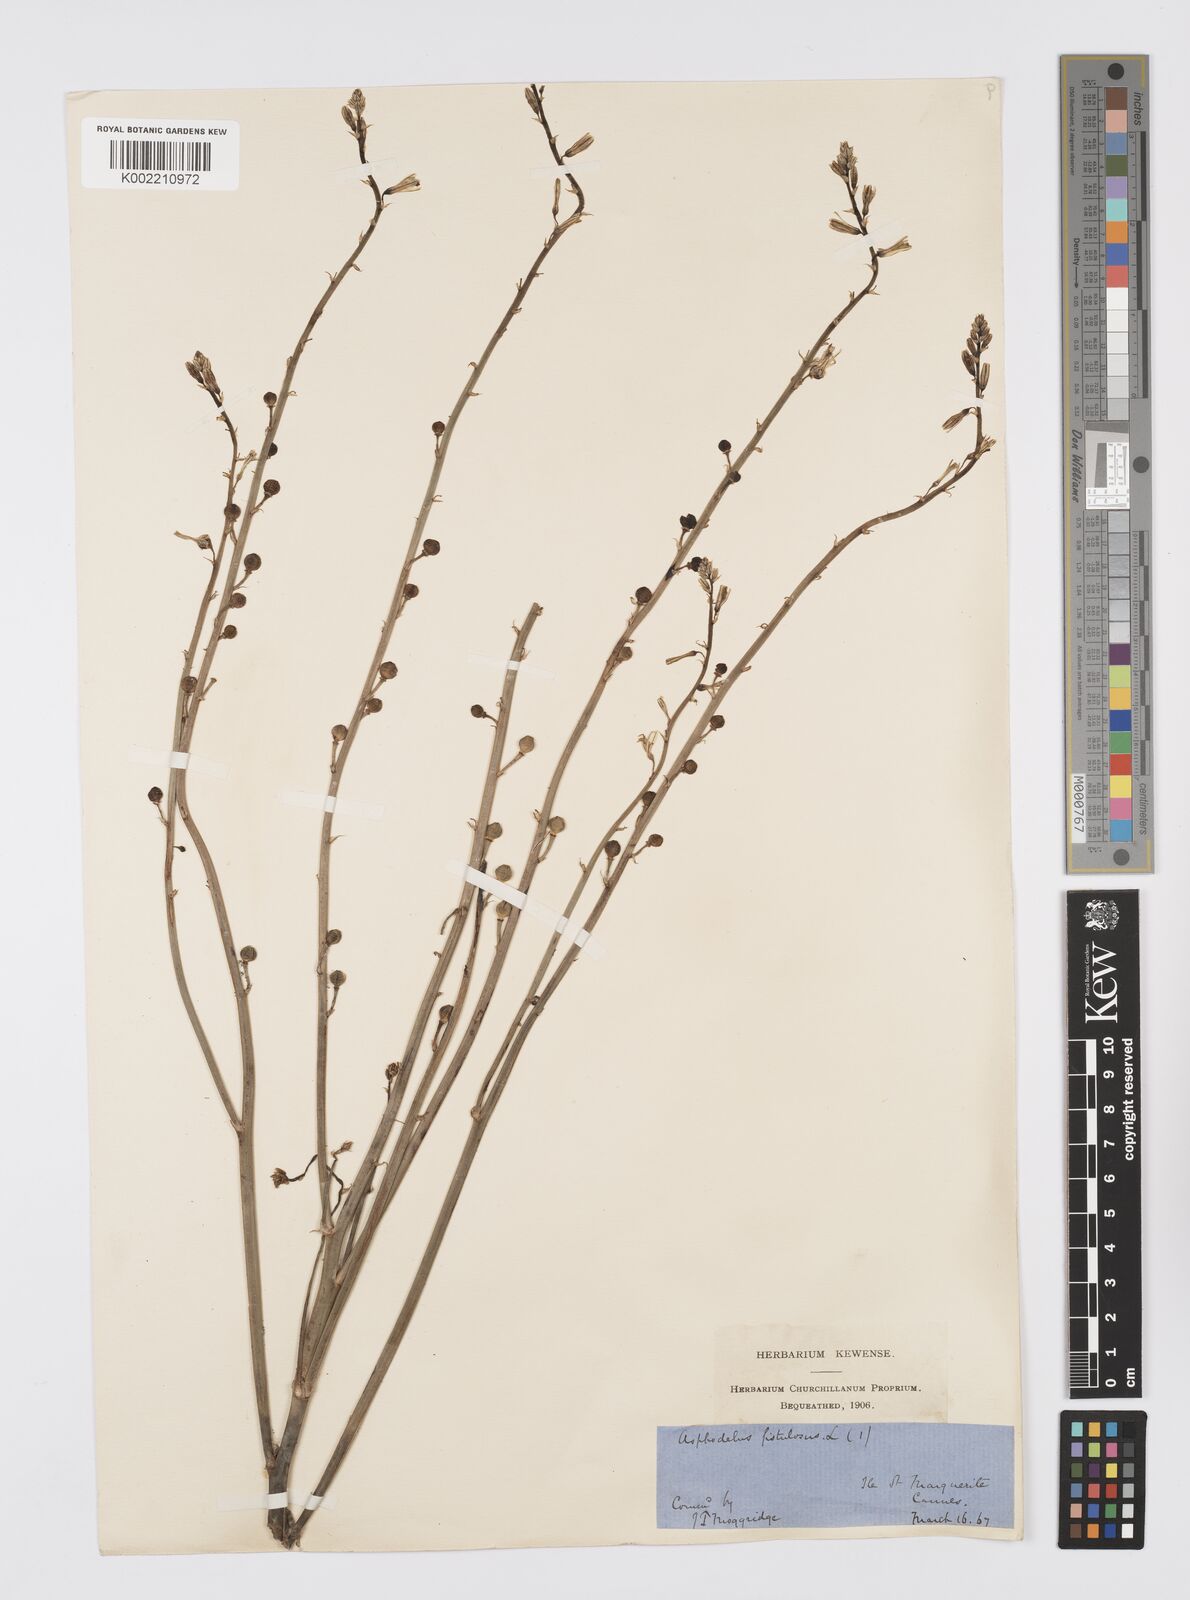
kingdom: Plantae
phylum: Tracheophyta
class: Liliopsida
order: Asparagales
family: Asphodelaceae
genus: Asphodelus
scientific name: Asphodelus fistulosus
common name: Onionweed
